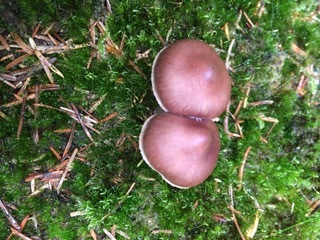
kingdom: Fungi
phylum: Basidiomycota
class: Agaricomycetes
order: Agaricales
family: Cortinariaceae
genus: Cortinarius
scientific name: Cortinarius
